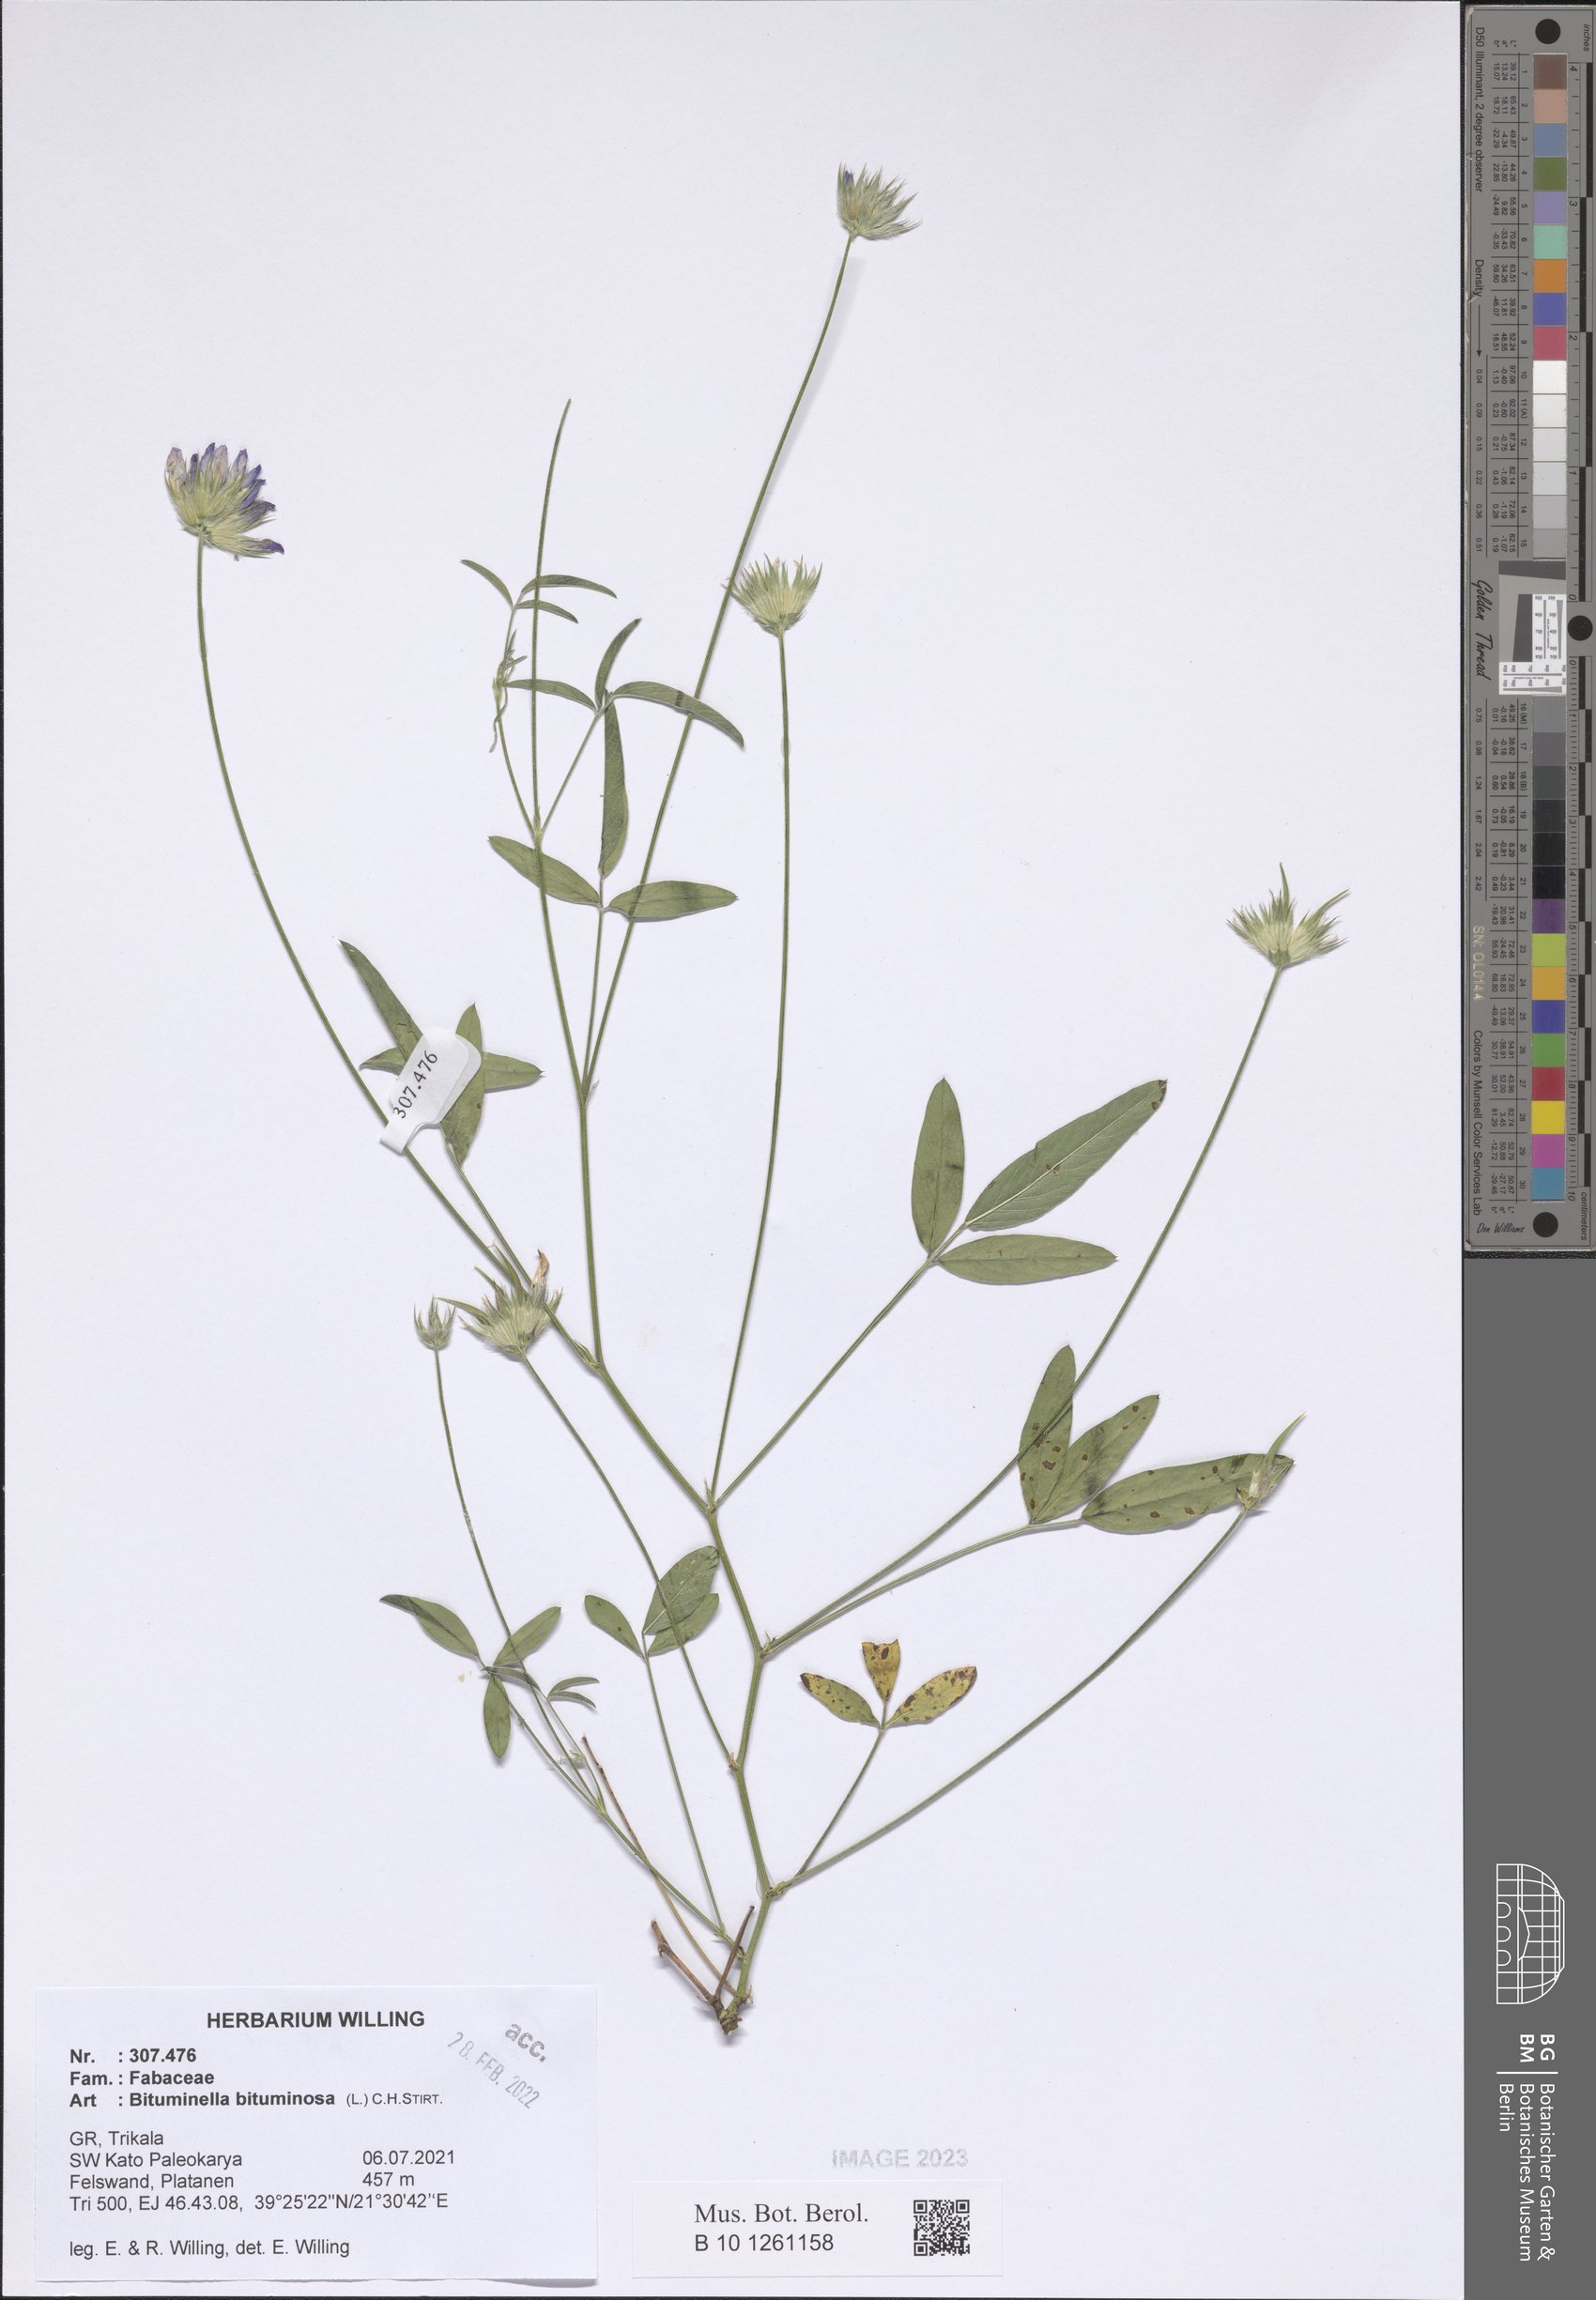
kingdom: Plantae
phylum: Tracheophyta
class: Magnoliopsida
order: Fabales
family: Fabaceae
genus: Bituminaria
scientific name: Bituminaria bituminosa
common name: Arabian pea
